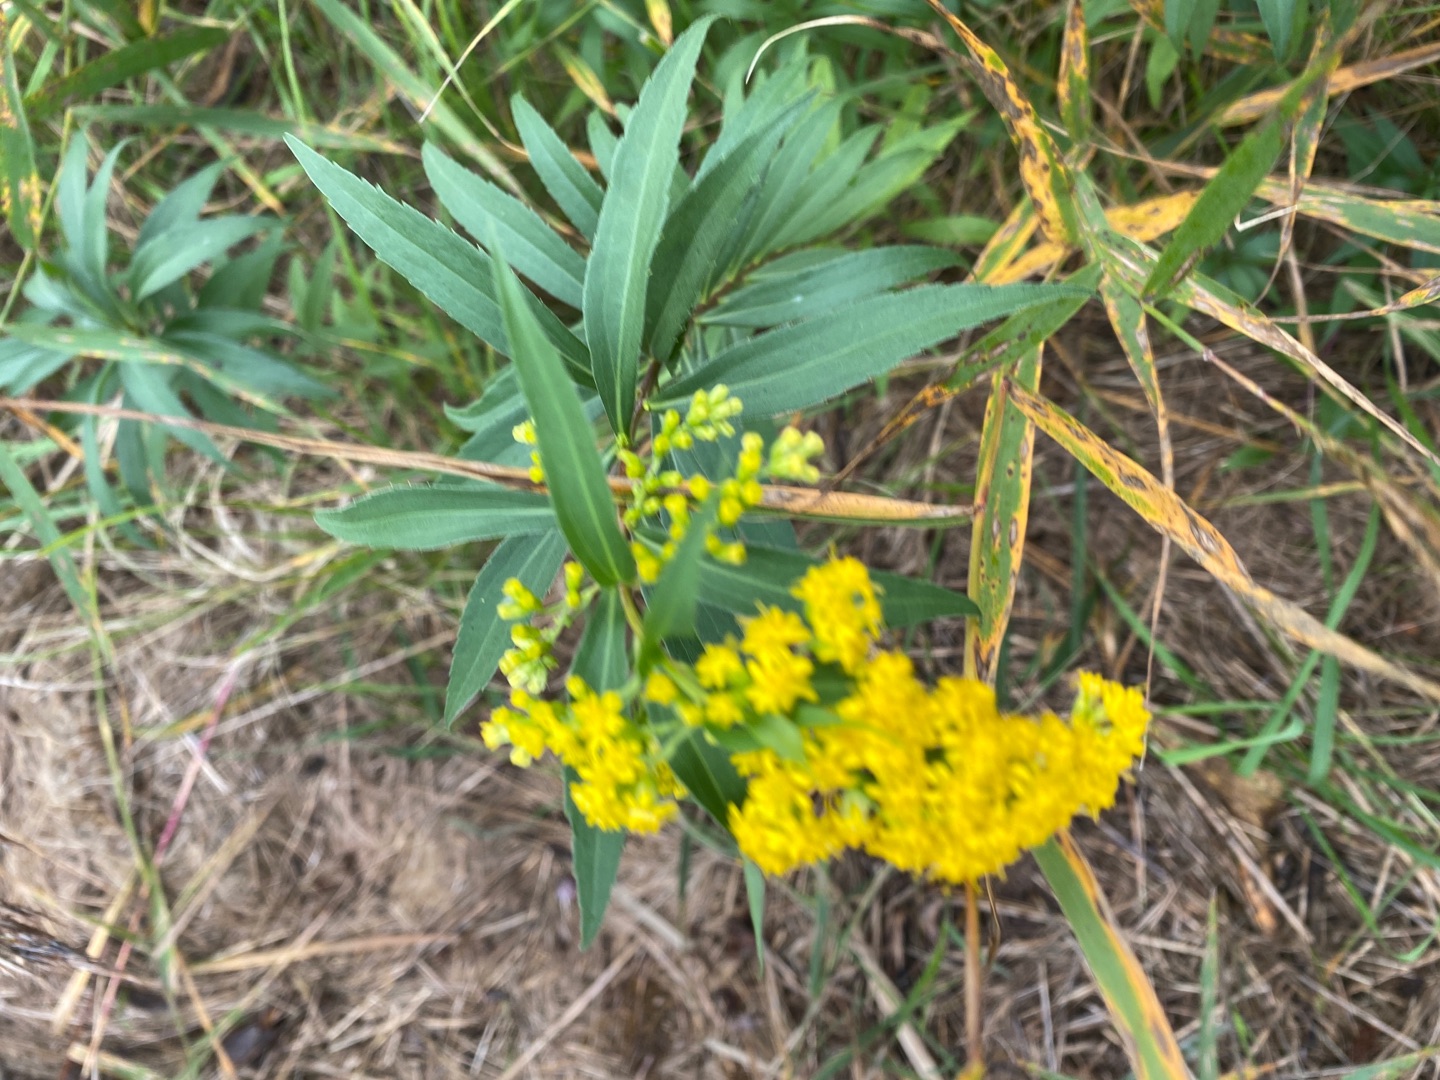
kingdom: Plantae
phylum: Tracheophyta
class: Magnoliopsida
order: Asterales
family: Asteraceae
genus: Solidago
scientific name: Solidago gigantea
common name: Sildig gyldenris
